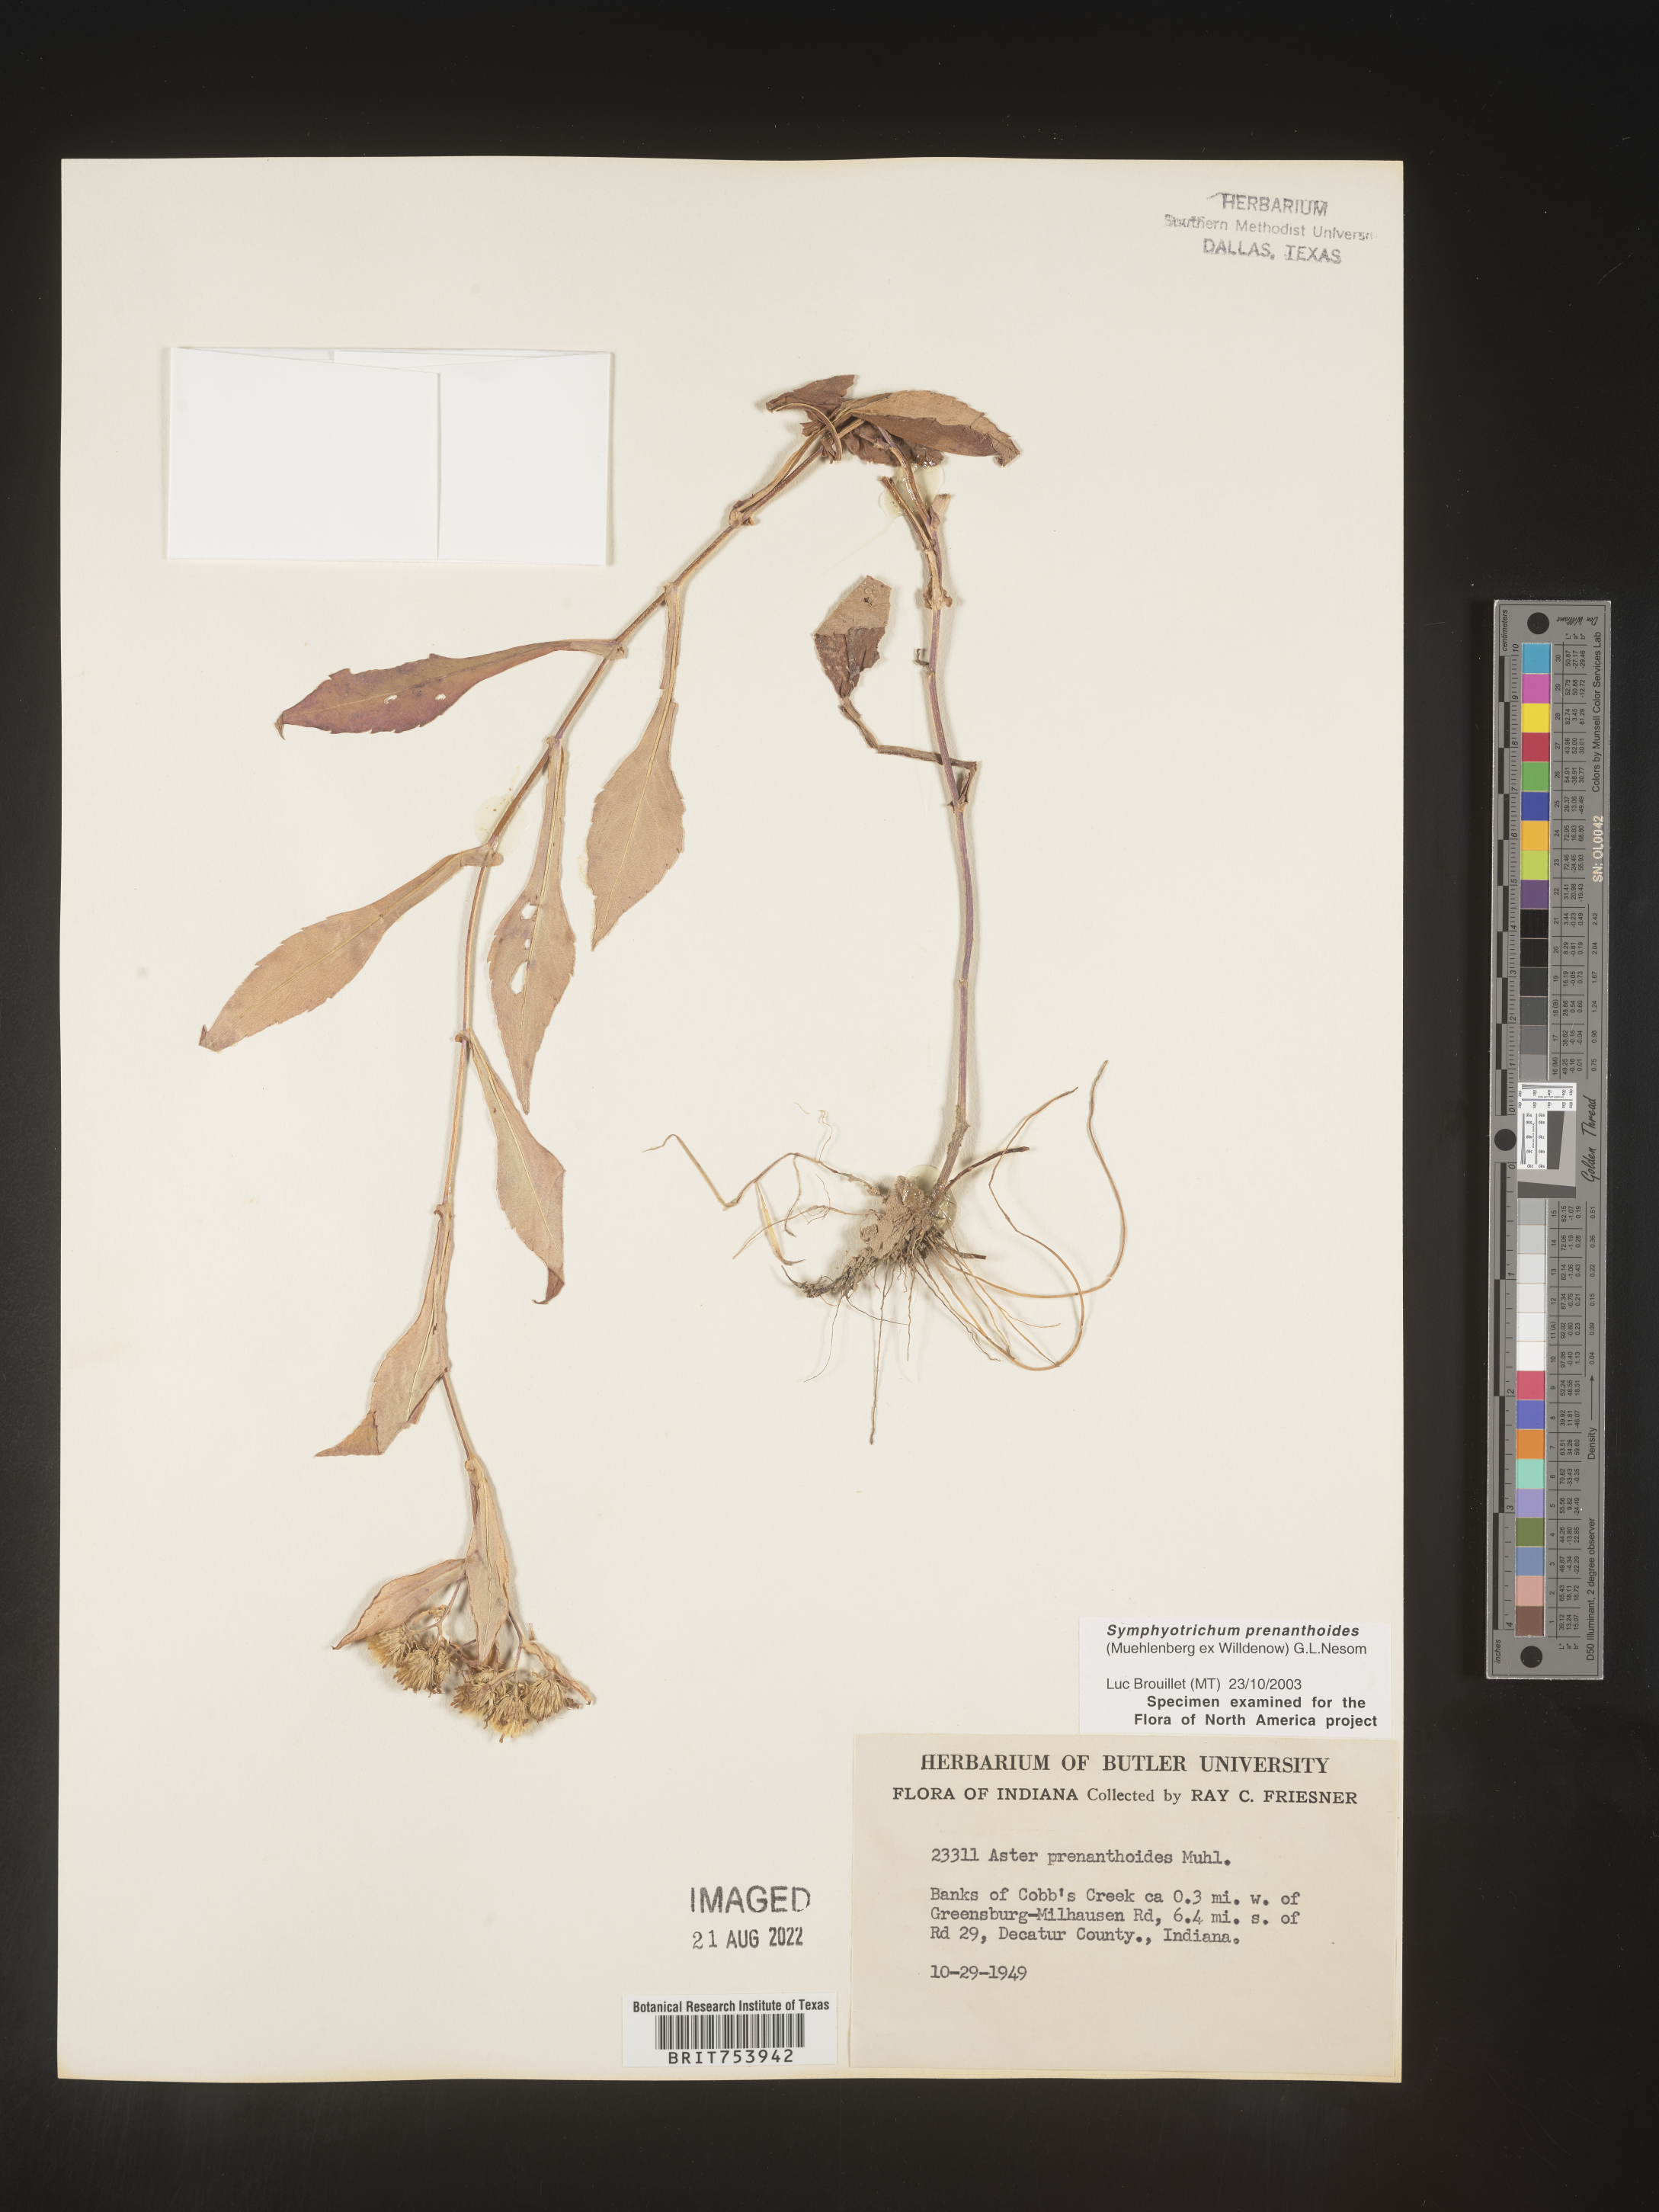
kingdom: Plantae
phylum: Tracheophyta
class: Magnoliopsida
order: Asterales
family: Asteraceae
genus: Symphyotrichum
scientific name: Symphyotrichum prenanthoides
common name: Crooked-stem aster
